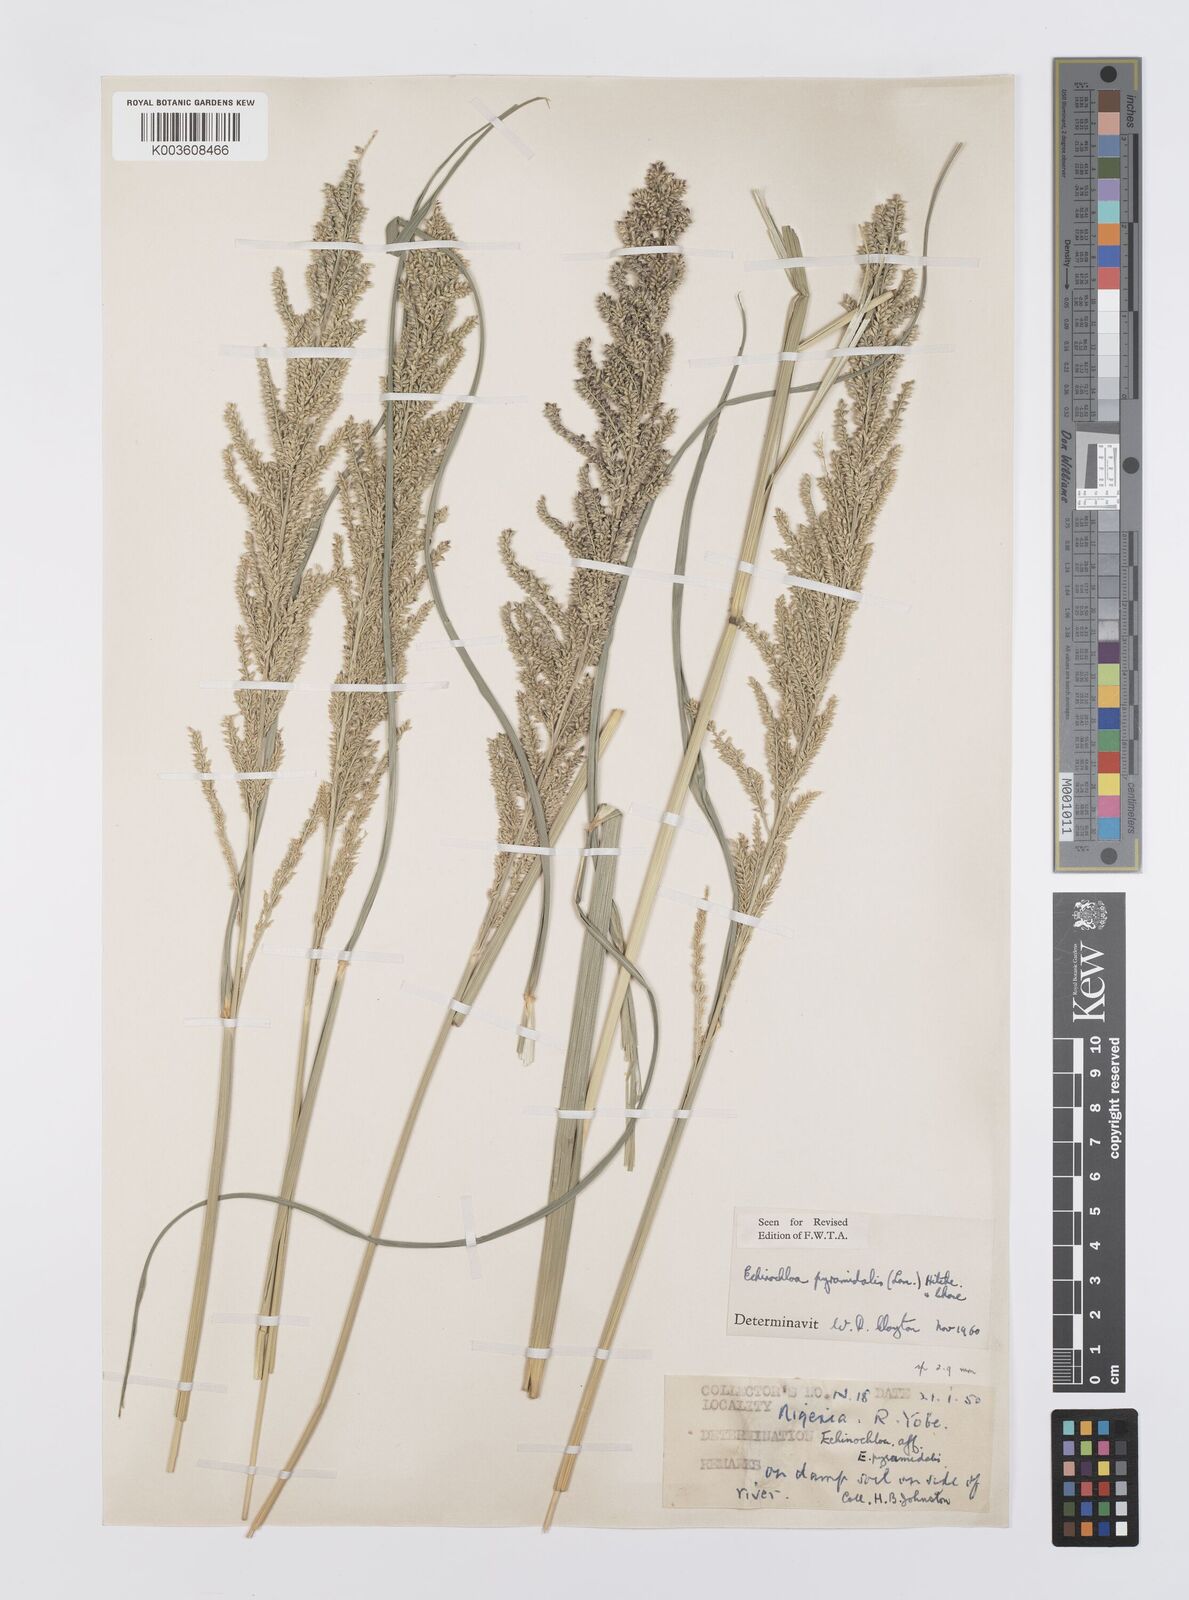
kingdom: Plantae
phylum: Tracheophyta
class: Liliopsida
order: Poales
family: Poaceae
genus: Echinochloa
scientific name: Echinochloa pyramidalis
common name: Antelope grass
